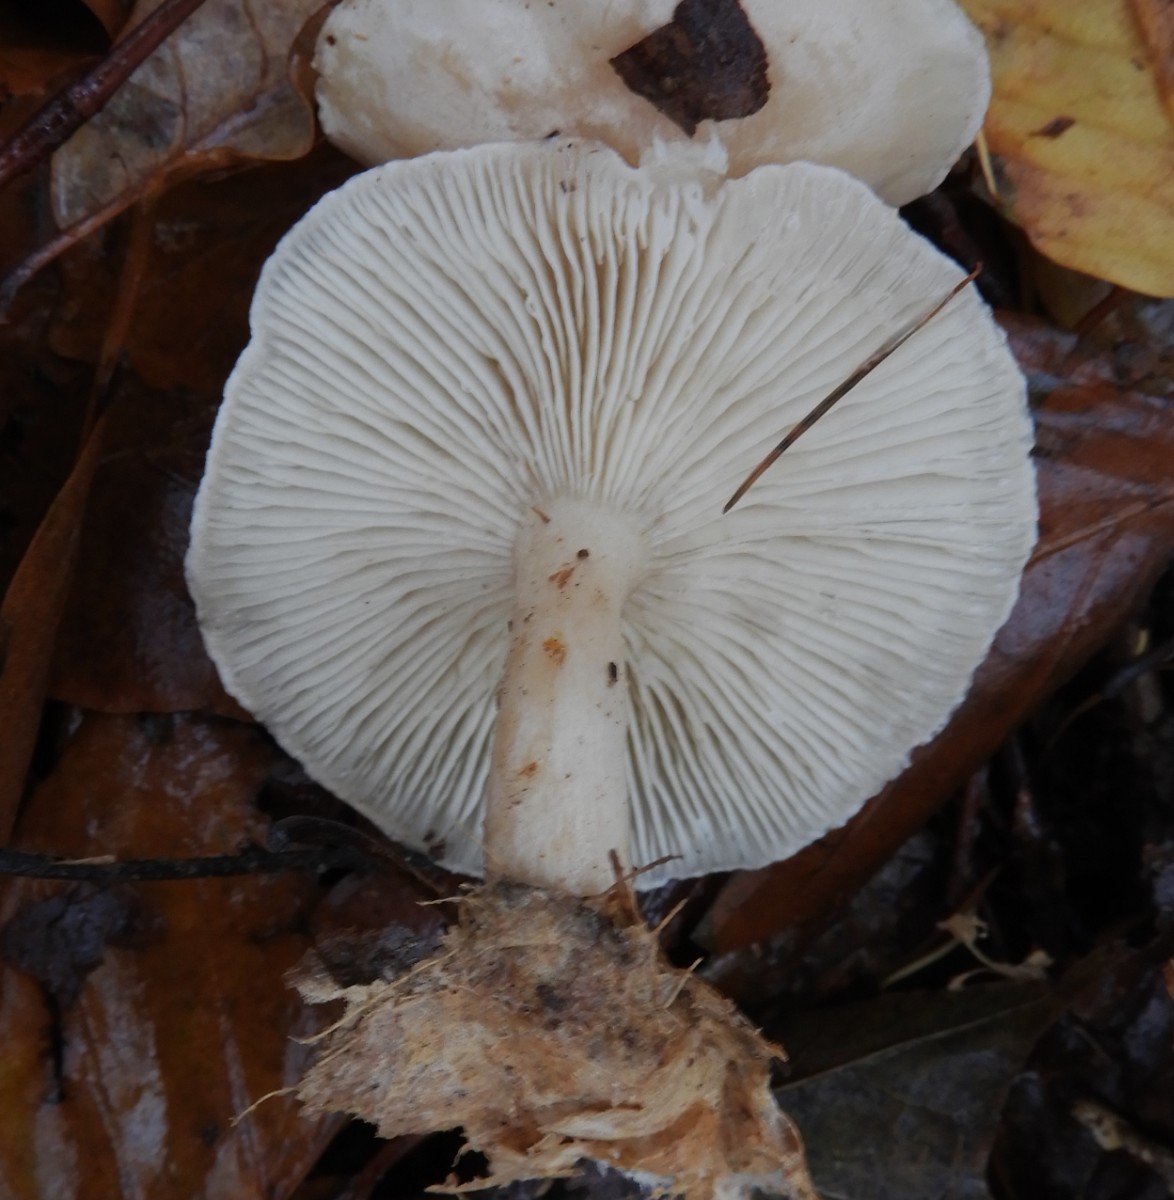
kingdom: Fungi
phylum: Basidiomycota
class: Agaricomycetes
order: Agaricales
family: Tricholomataceae
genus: Clitocybe
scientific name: Clitocybe
